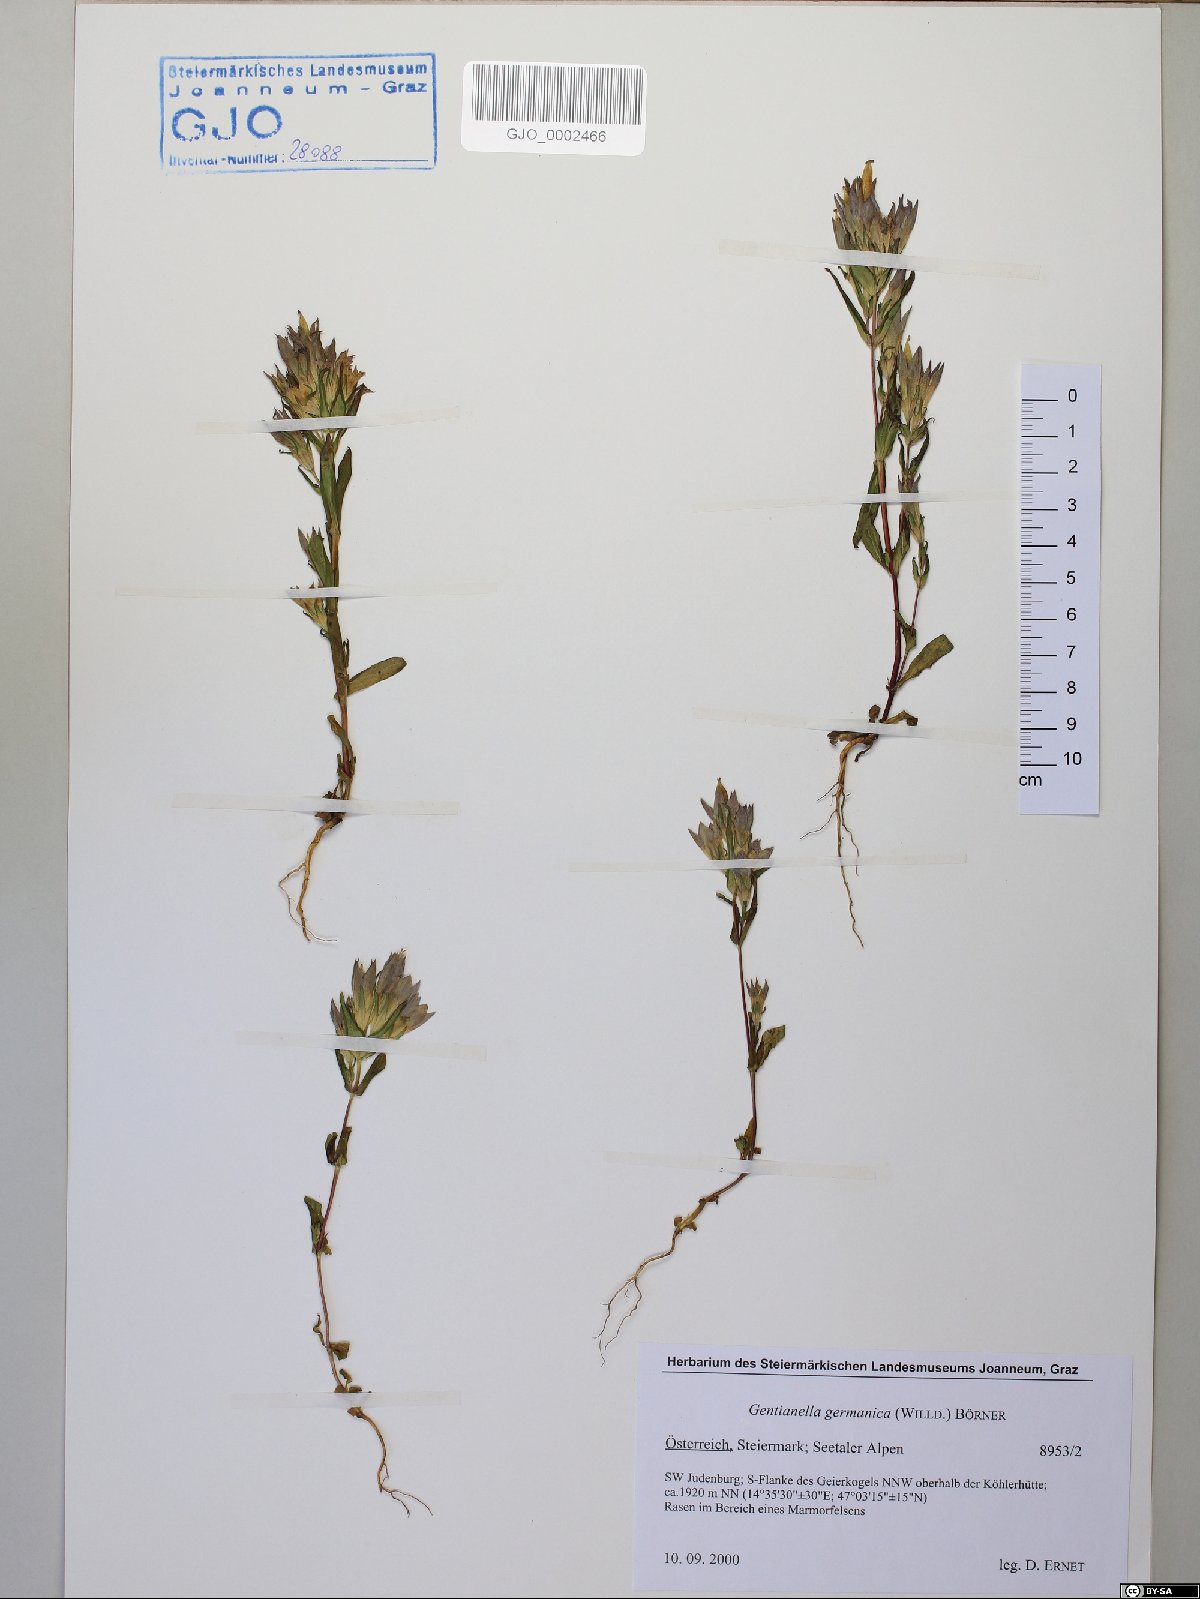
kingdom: Plantae
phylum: Tracheophyta
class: Magnoliopsida
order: Gentianales
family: Gentianaceae
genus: Gentianella
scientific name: Gentianella germanica
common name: Chiltern-gentian
